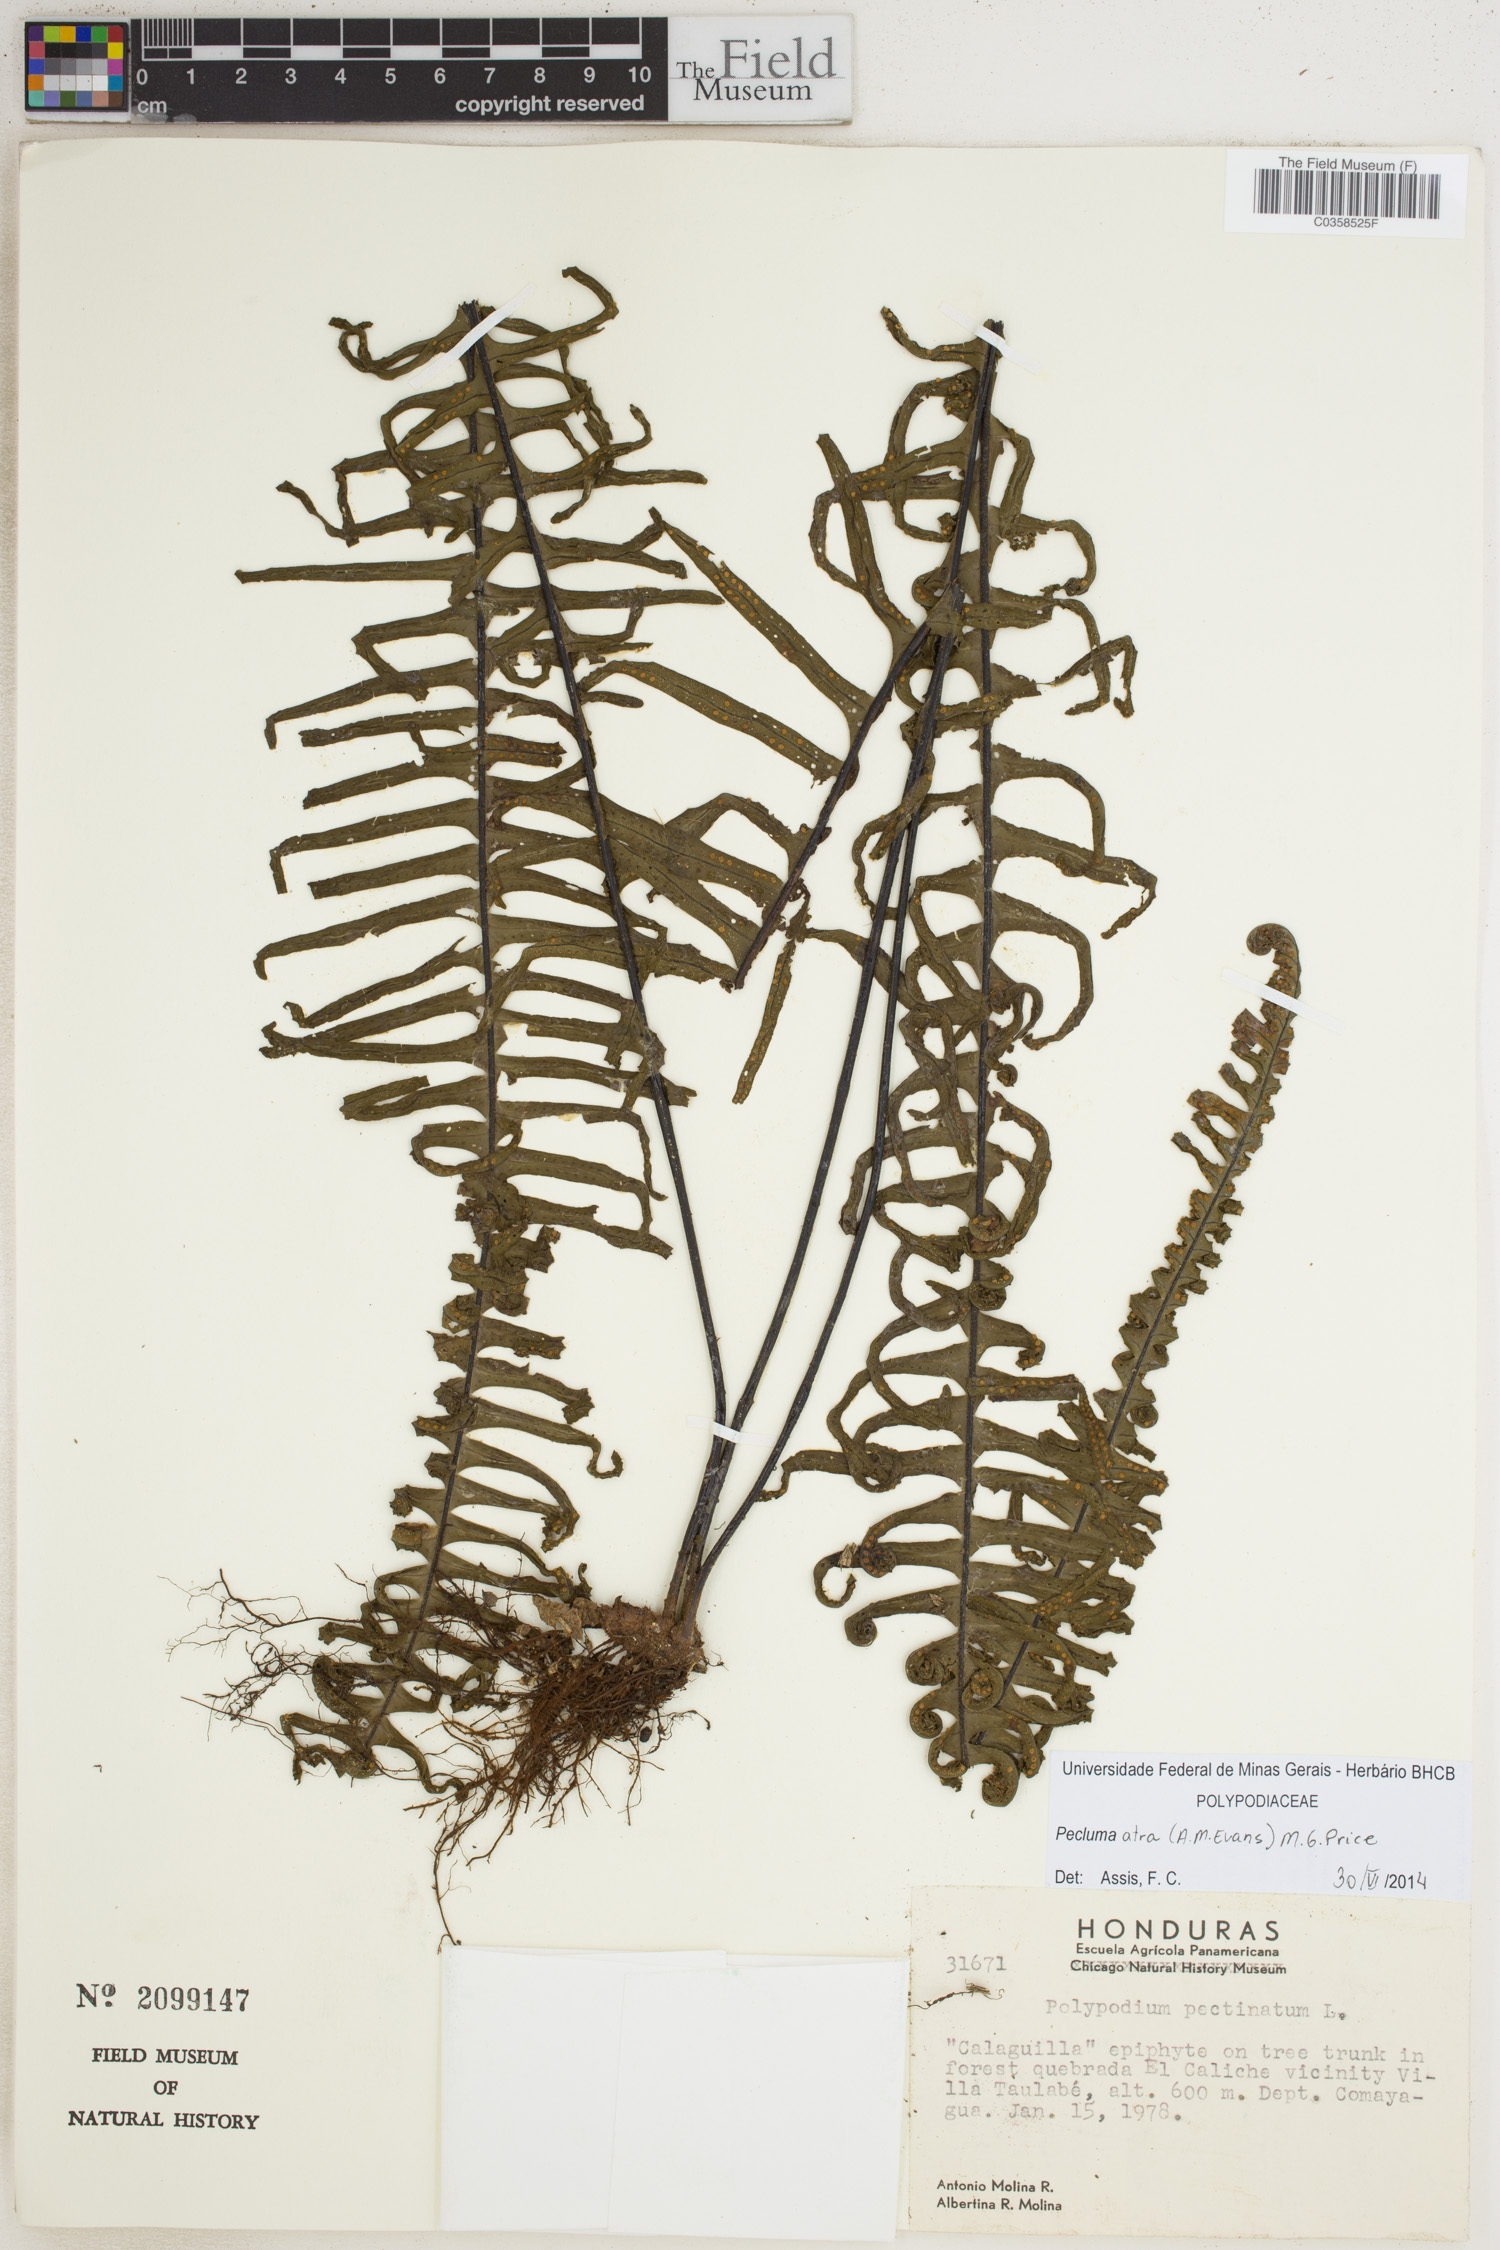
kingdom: Plantae
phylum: Tracheophyta
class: Polypodiopsida
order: Polypodiales
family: Polypodiaceae
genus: Pecluma
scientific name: Pecluma atra
